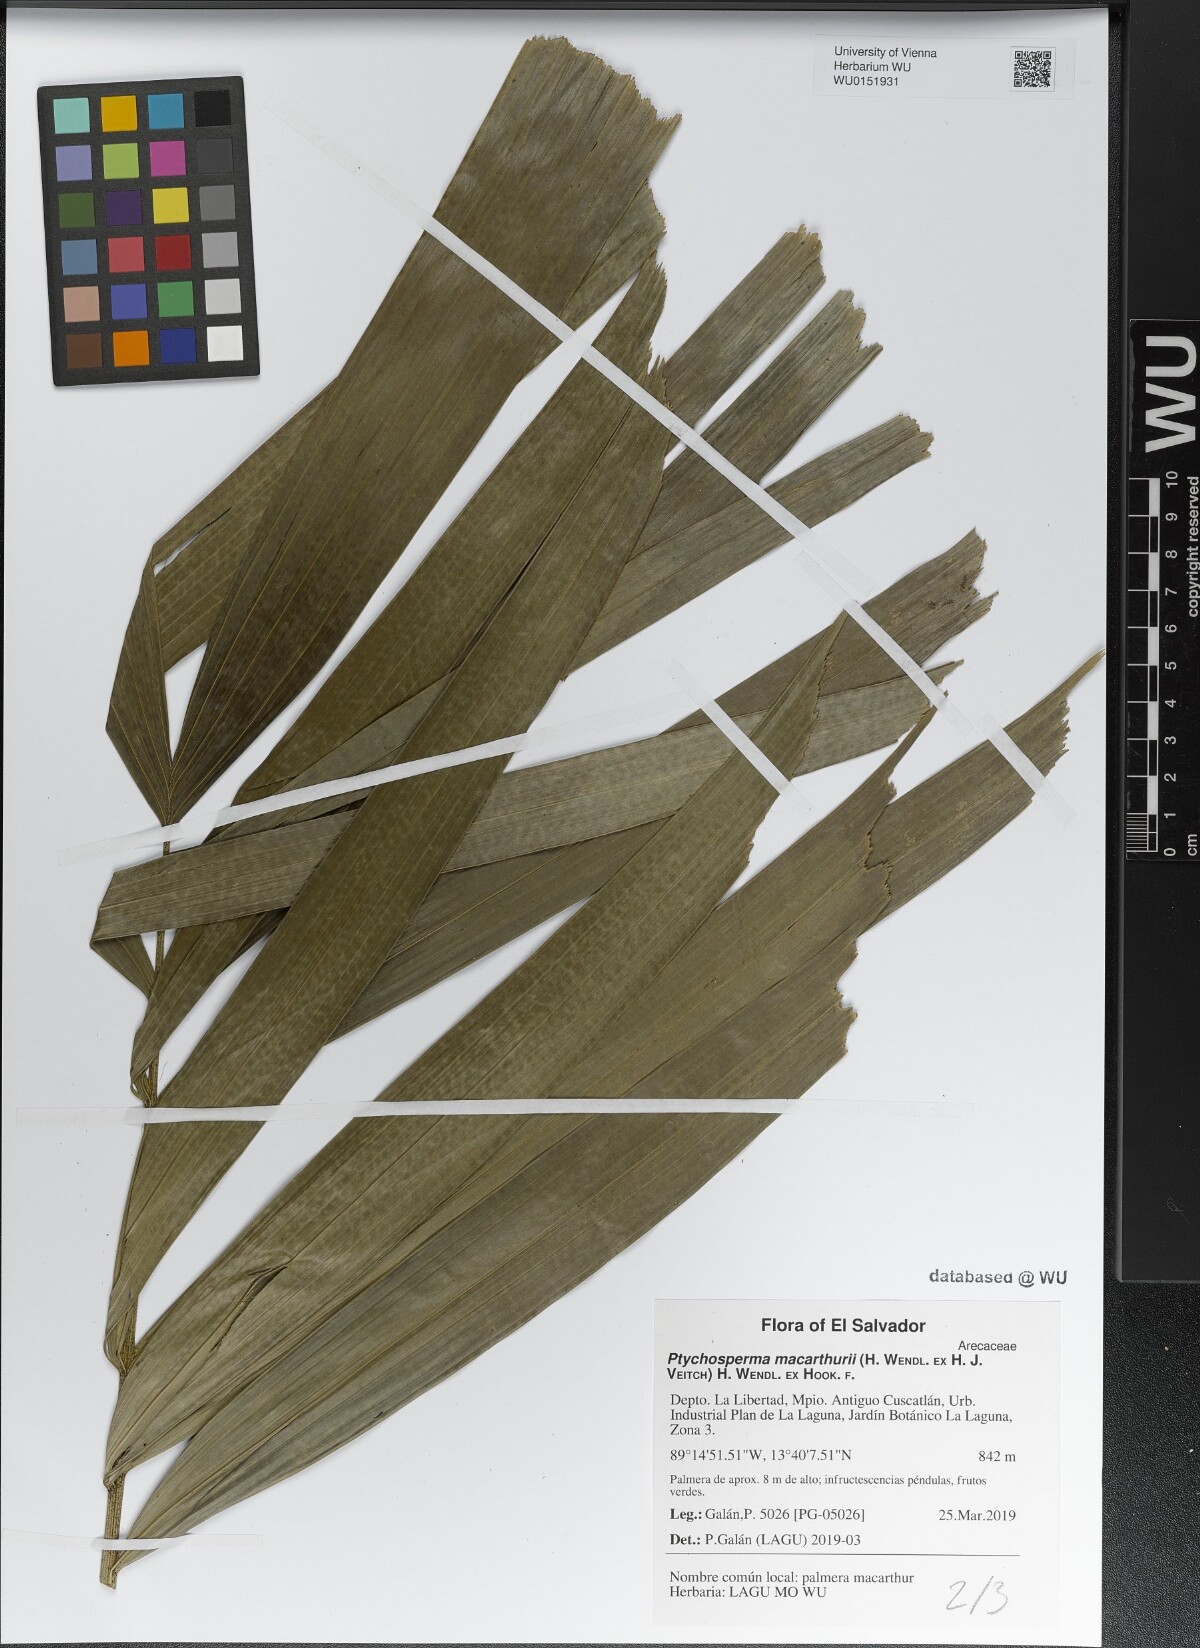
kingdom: Plantae
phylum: Tracheophyta
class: Liliopsida
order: Arecales
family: Arecaceae
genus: Ptychosperma
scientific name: Ptychosperma macarthurii
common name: Macarthur palm
